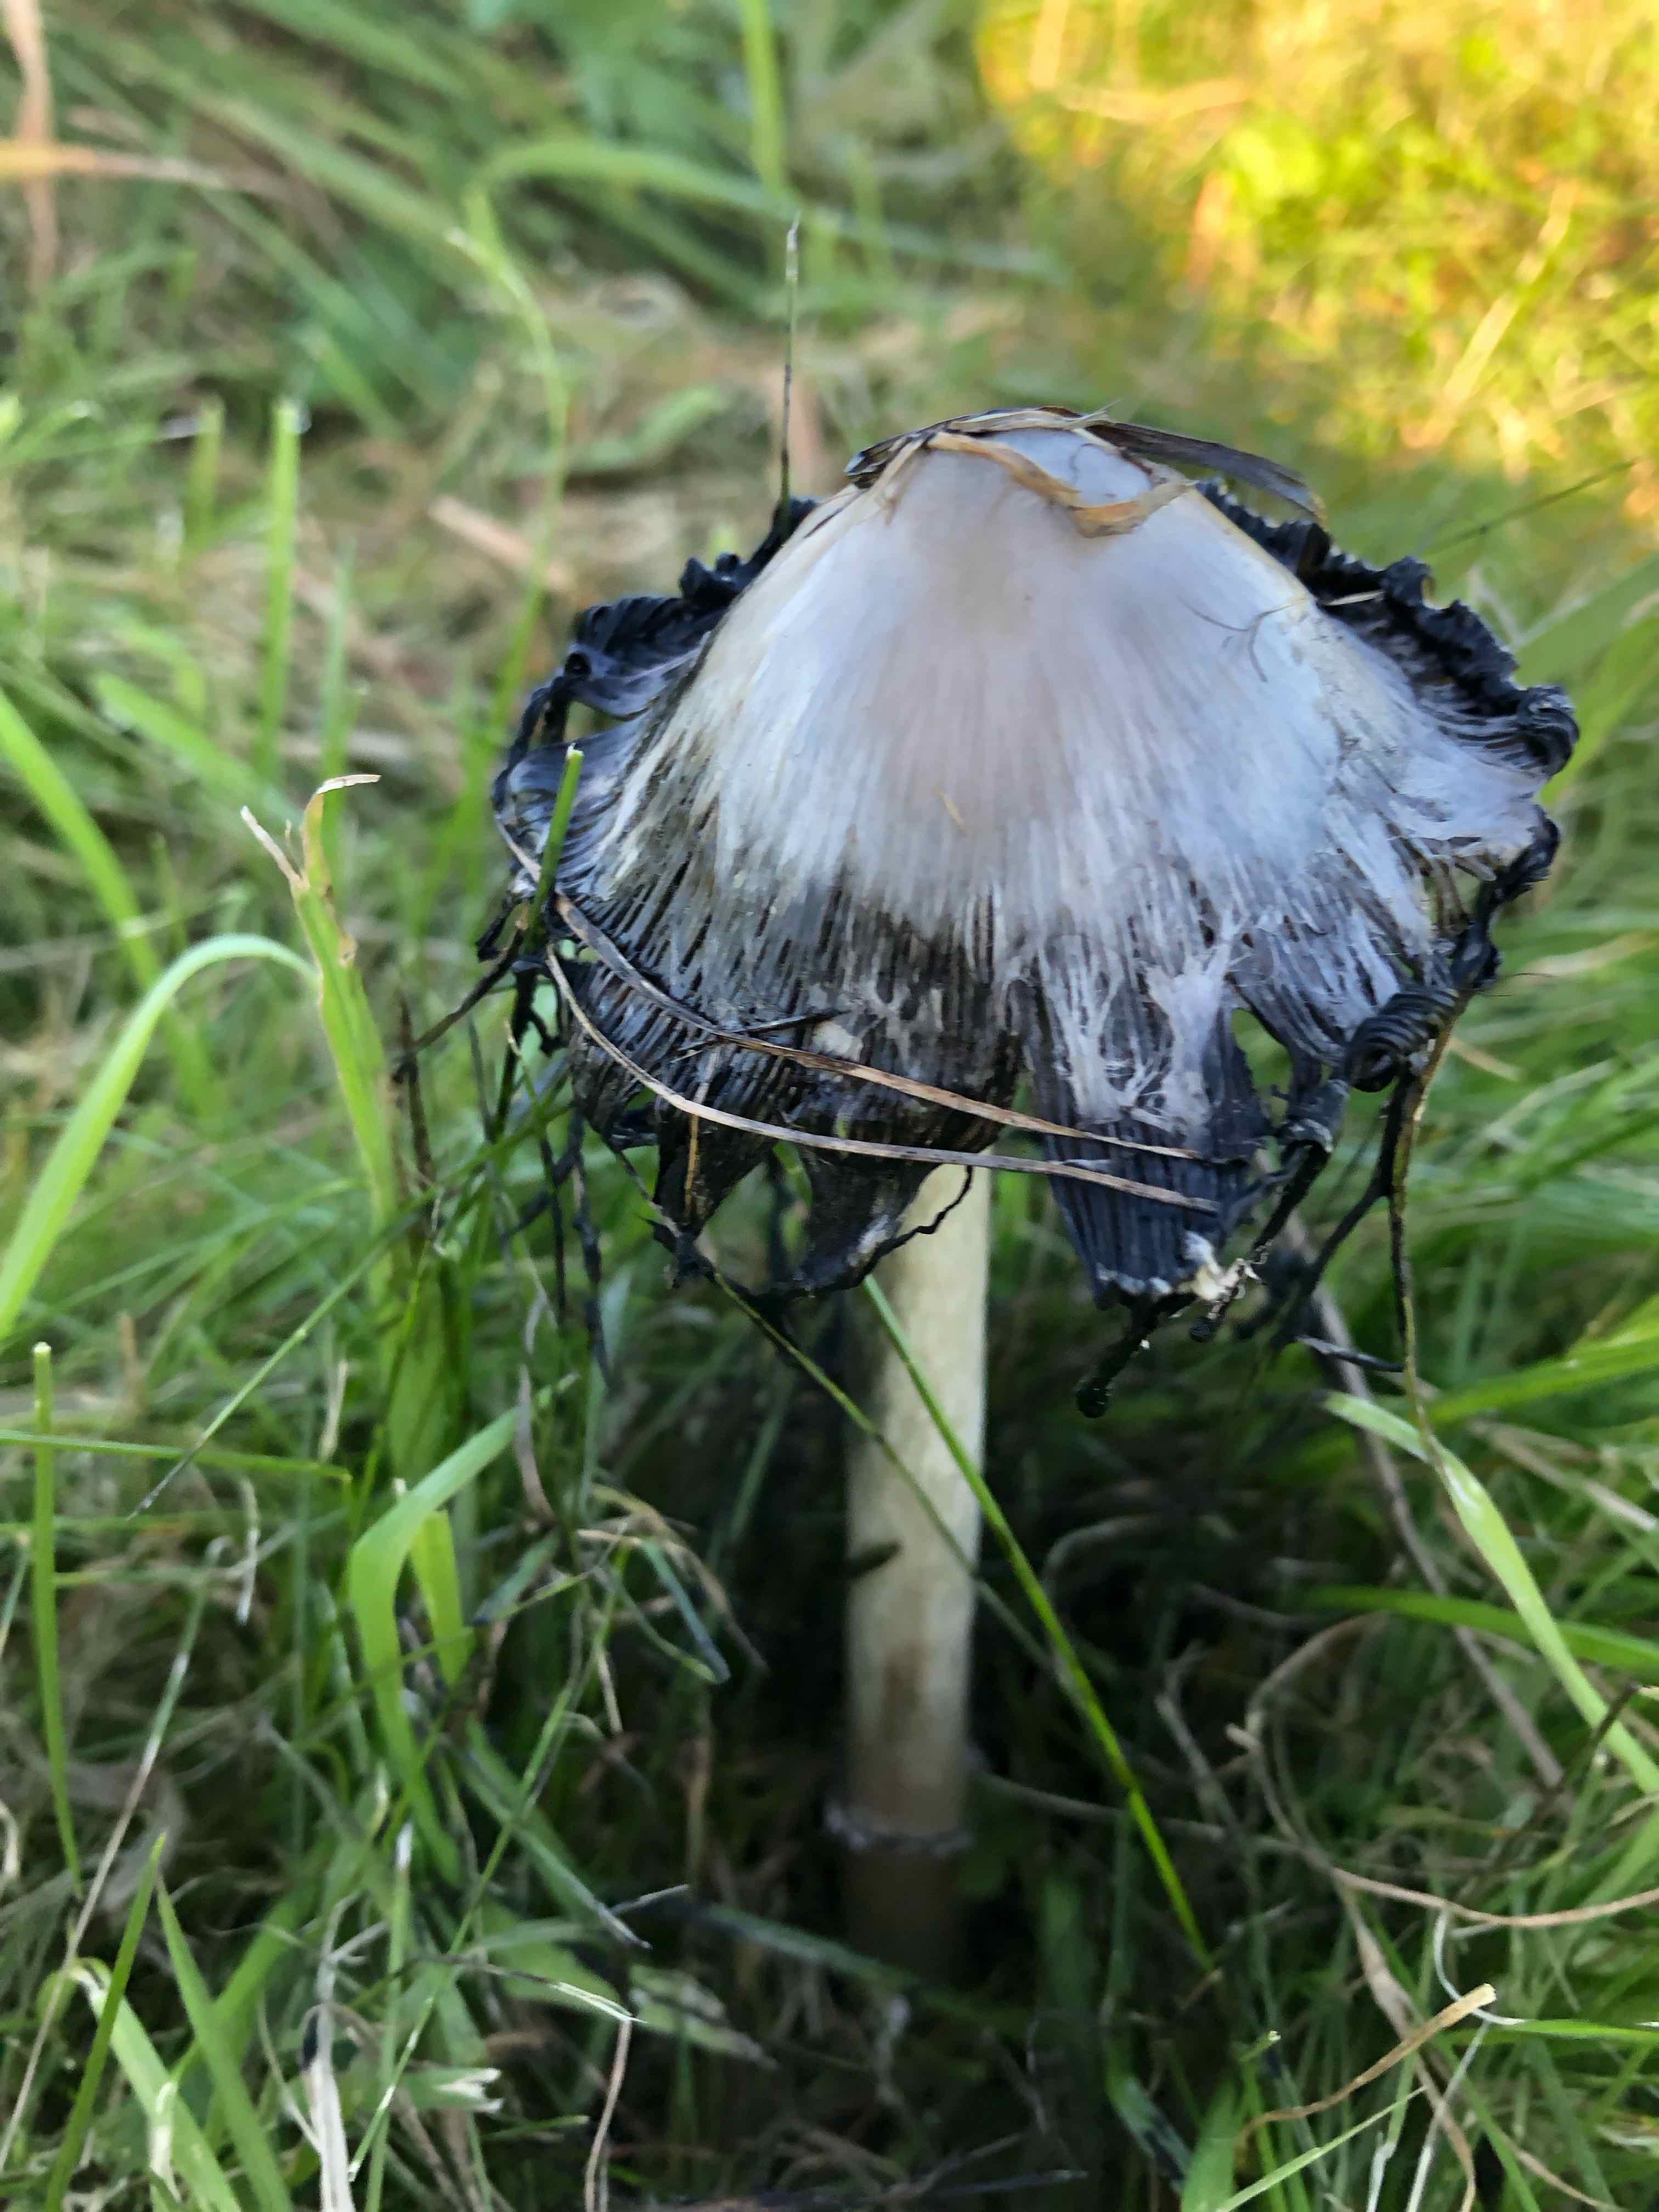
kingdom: Fungi
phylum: Basidiomycota
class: Agaricomycetes
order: Agaricales
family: Agaricaceae
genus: Coprinus
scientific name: Coprinus comatus
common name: stor parykhat
